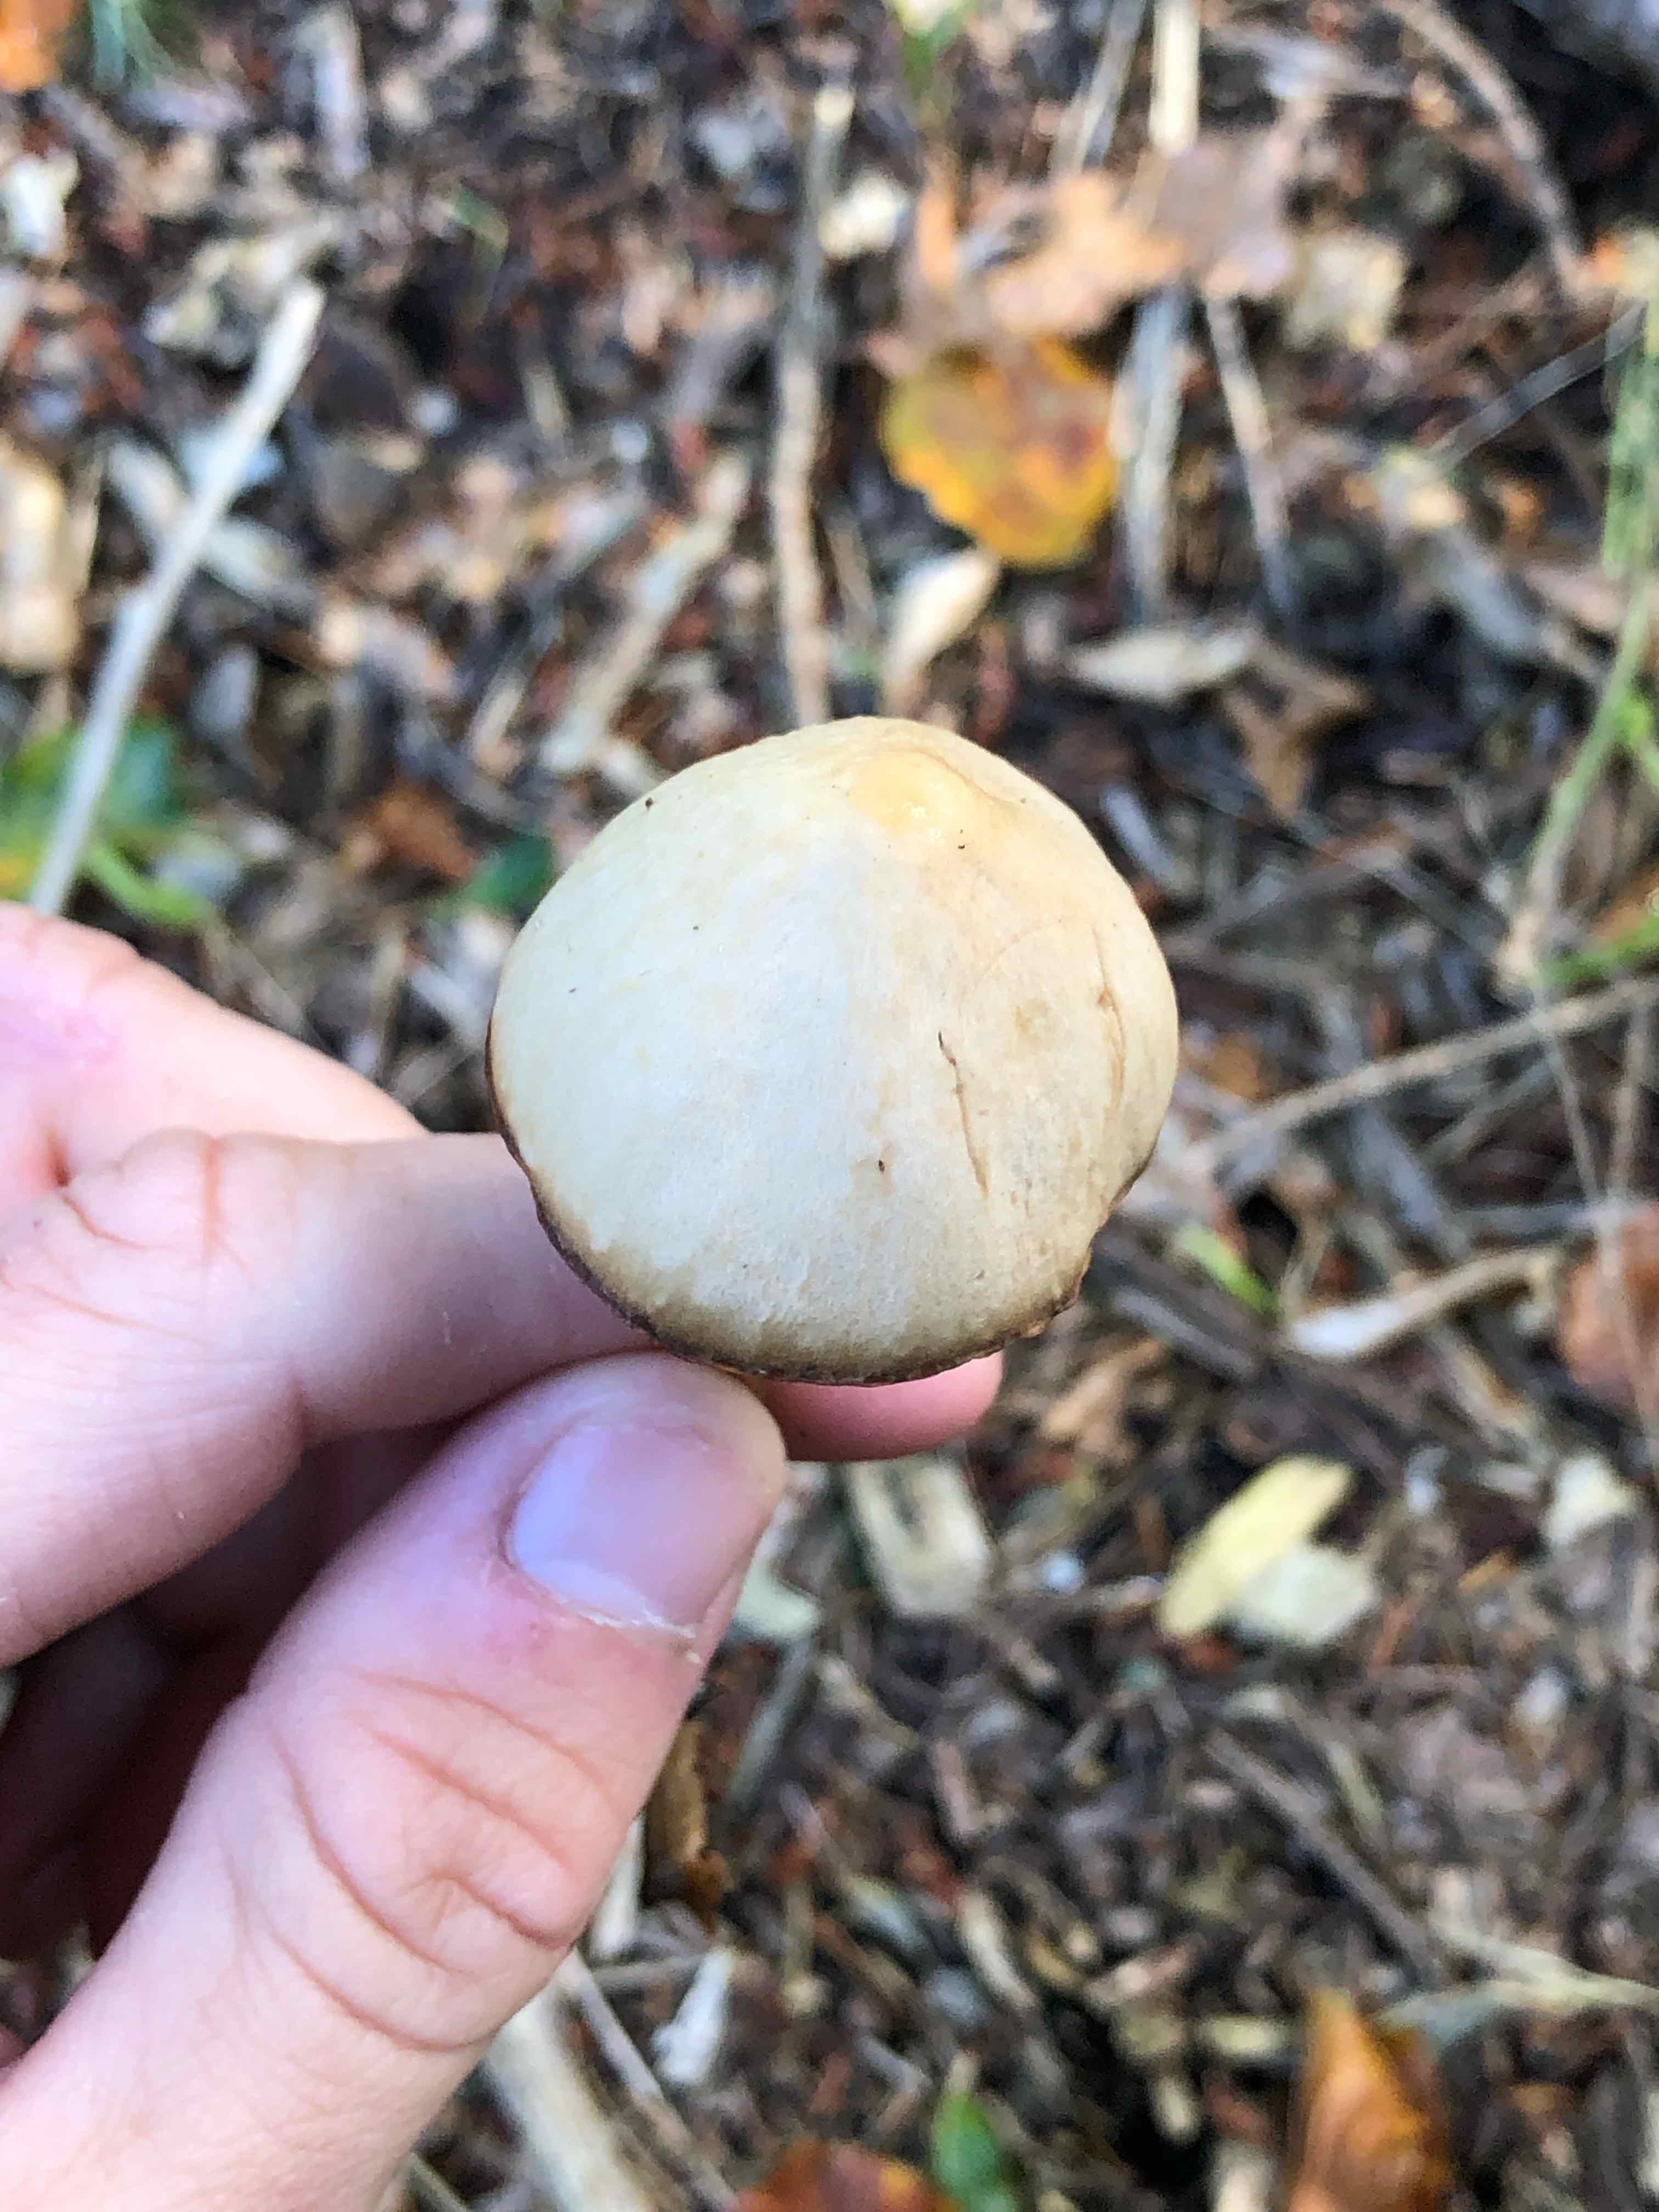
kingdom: Fungi
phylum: Basidiomycota
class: Agaricomycetes
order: Agaricales
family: Psathyrellaceae
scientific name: Psathyrellaceae
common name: mørkhatfamilien
